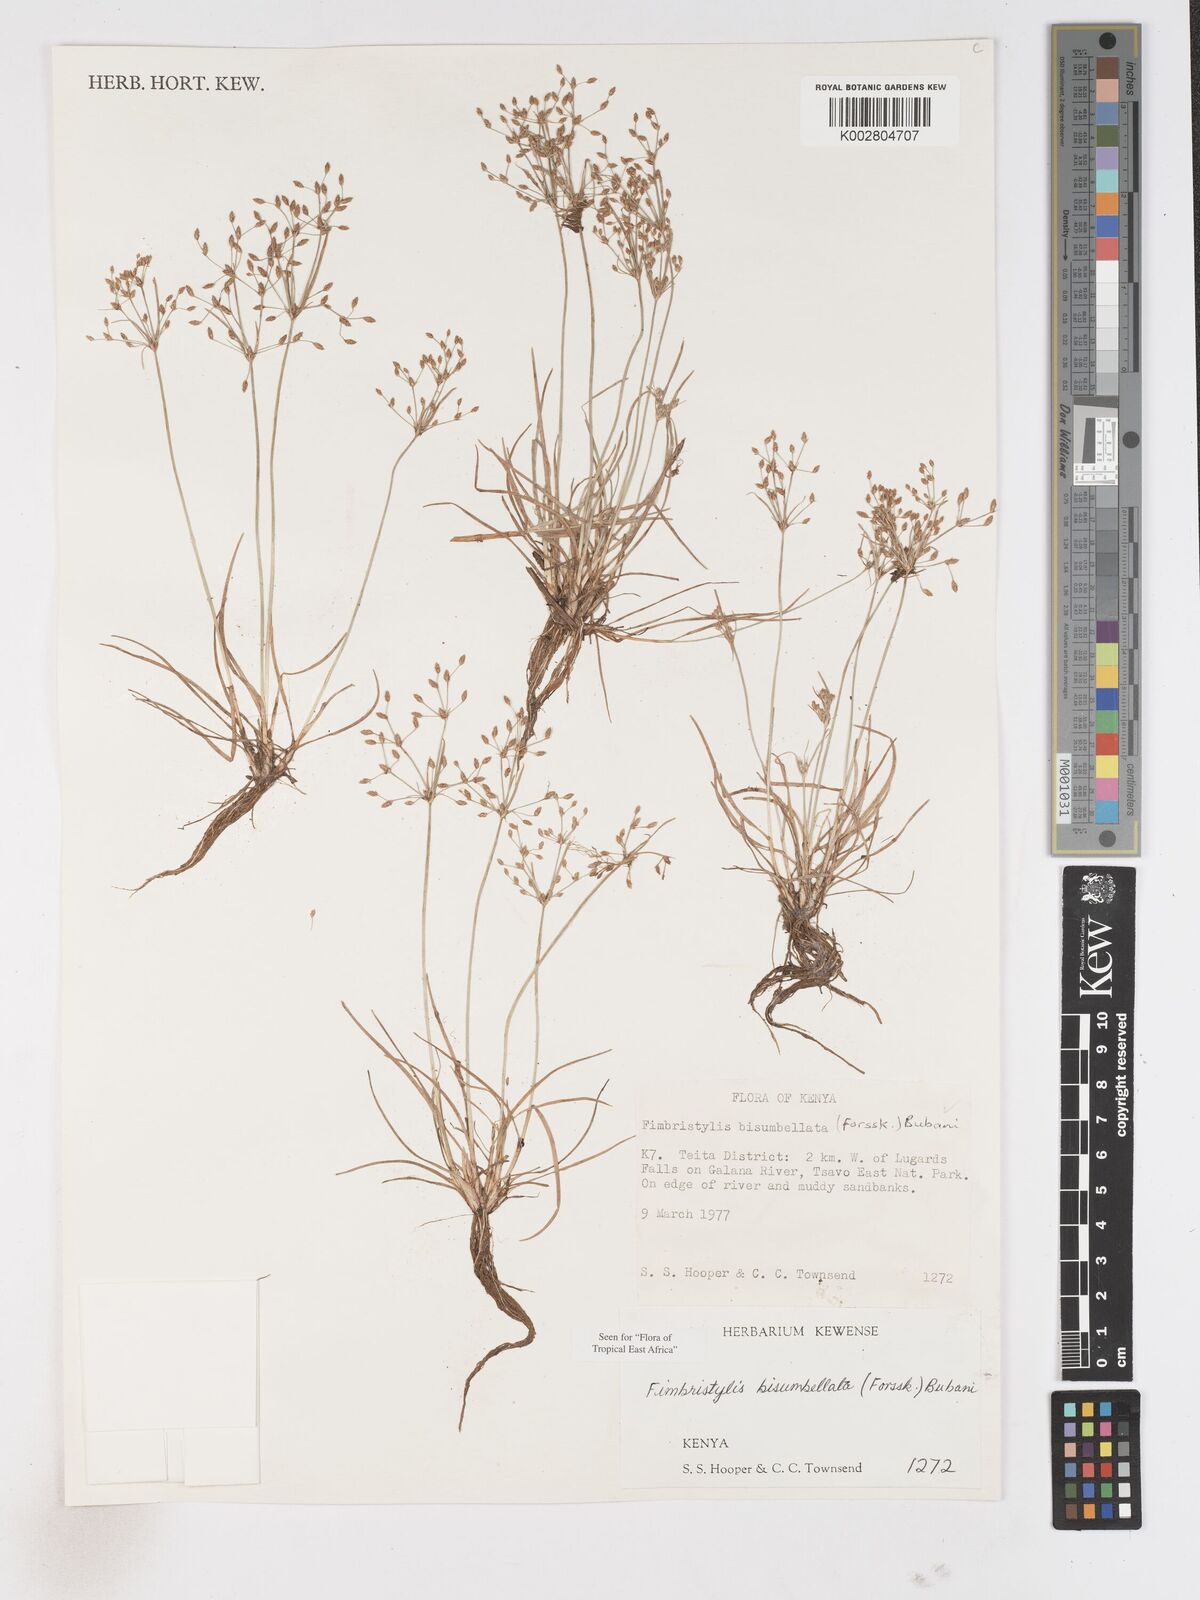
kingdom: Plantae
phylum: Tracheophyta
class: Liliopsida
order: Poales
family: Cyperaceae
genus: Fimbristylis
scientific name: Fimbristylis bisumbellata
